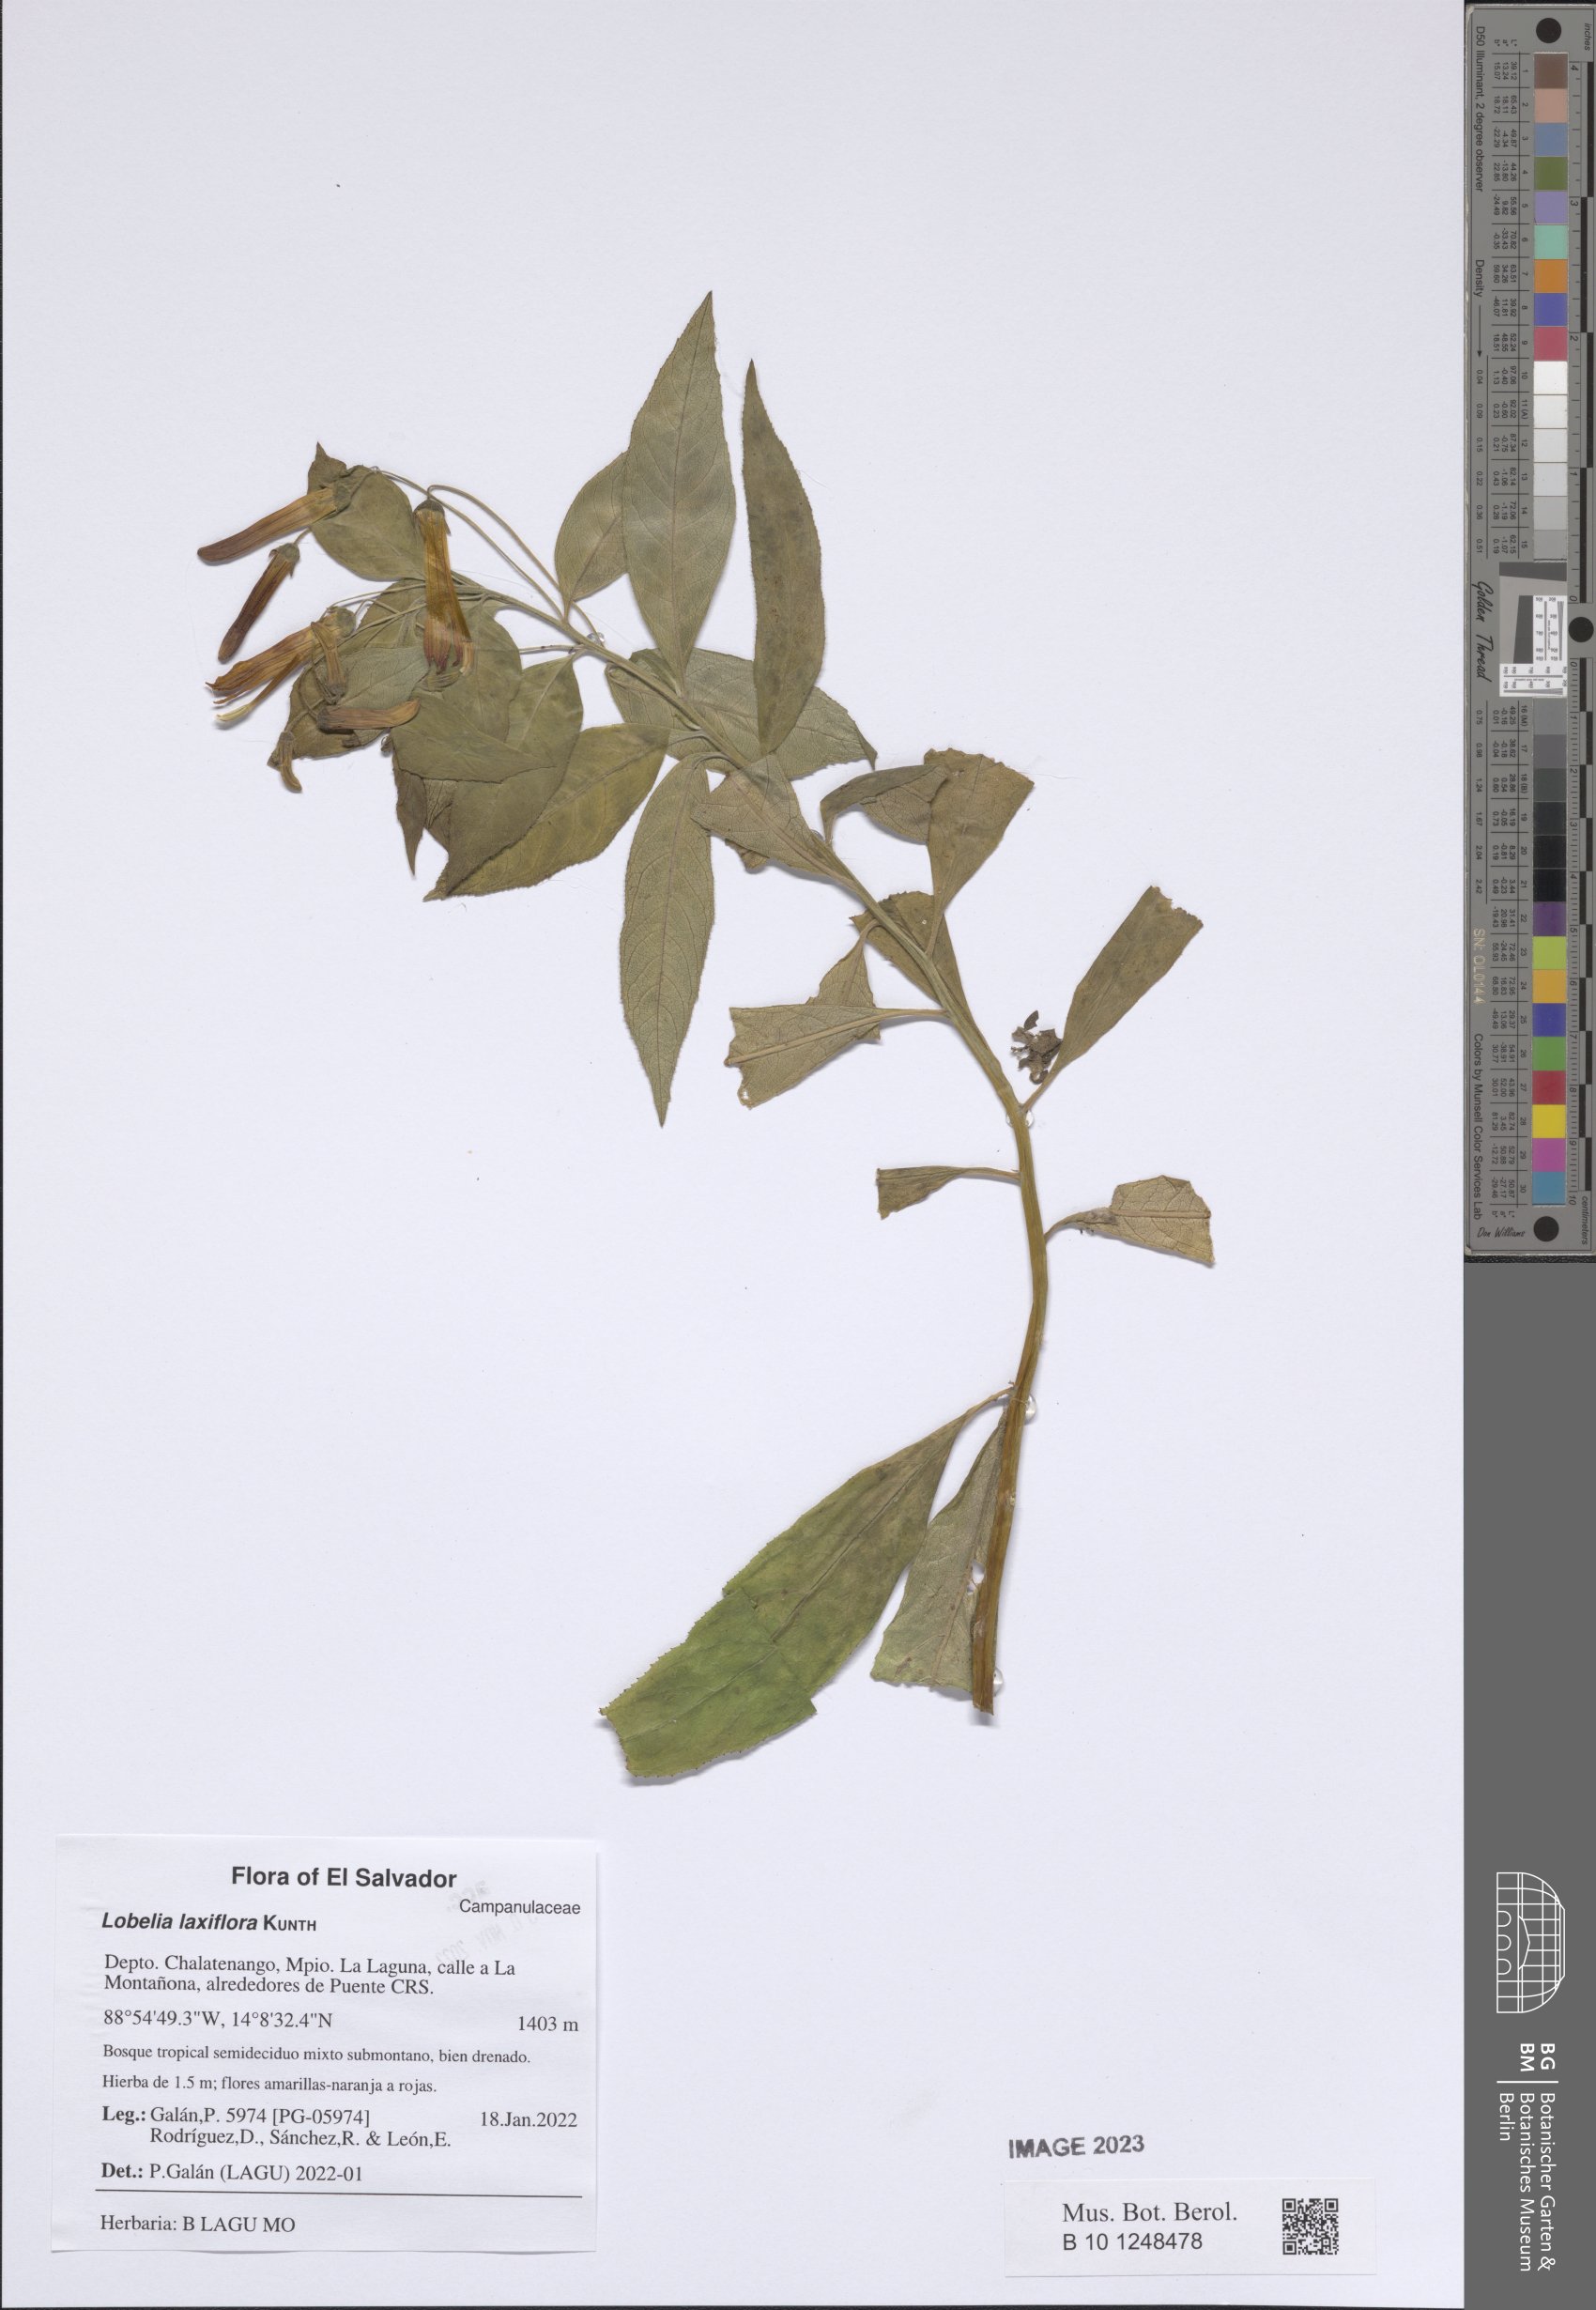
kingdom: Plantae
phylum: Tracheophyta
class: Magnoliopsida
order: Asterales
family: Campanulaceae
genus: Lobelia
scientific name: Lobelia laxiflora
